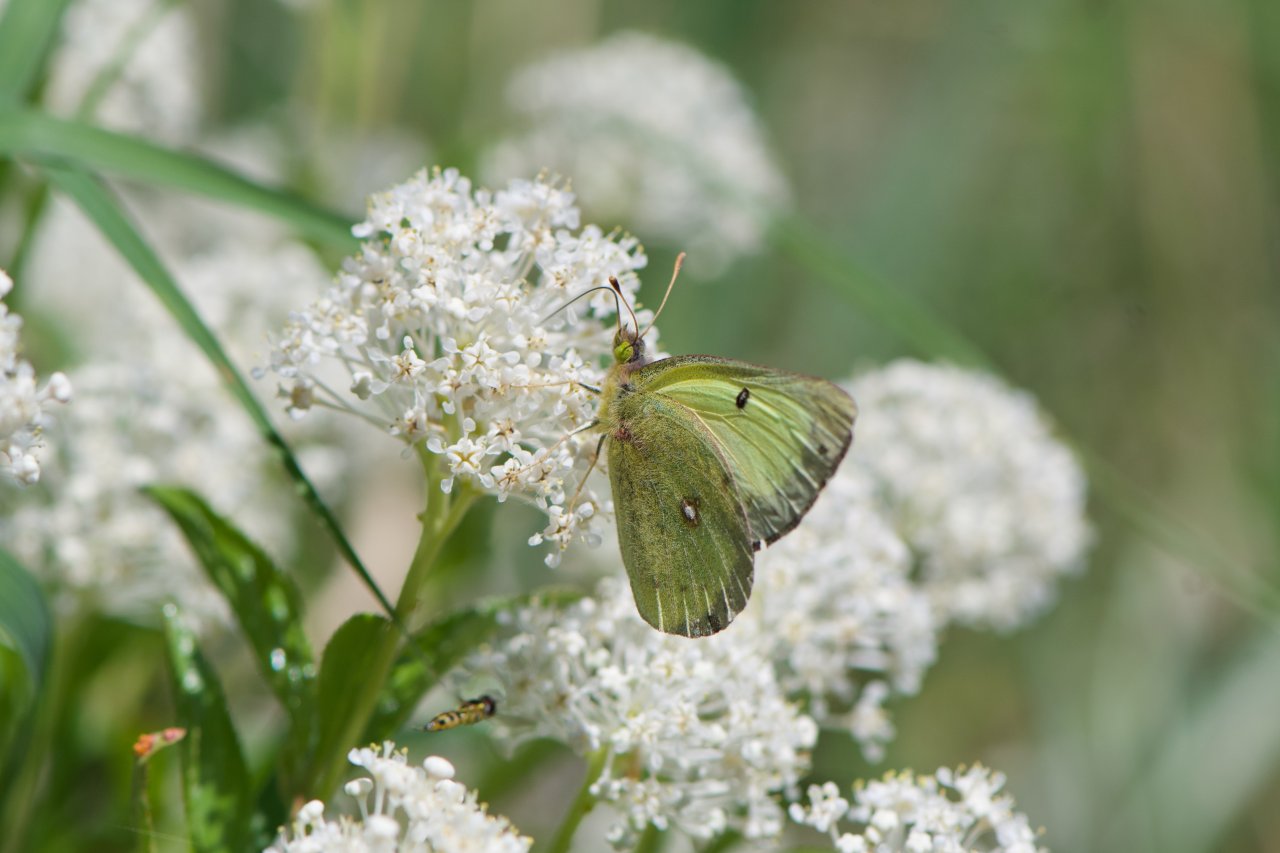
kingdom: Animalia
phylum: Arthropoda
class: Insecta
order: Lepidoptera
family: Pieridae
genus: Colias
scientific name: Colias philodice
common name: Clouded Sulphur
